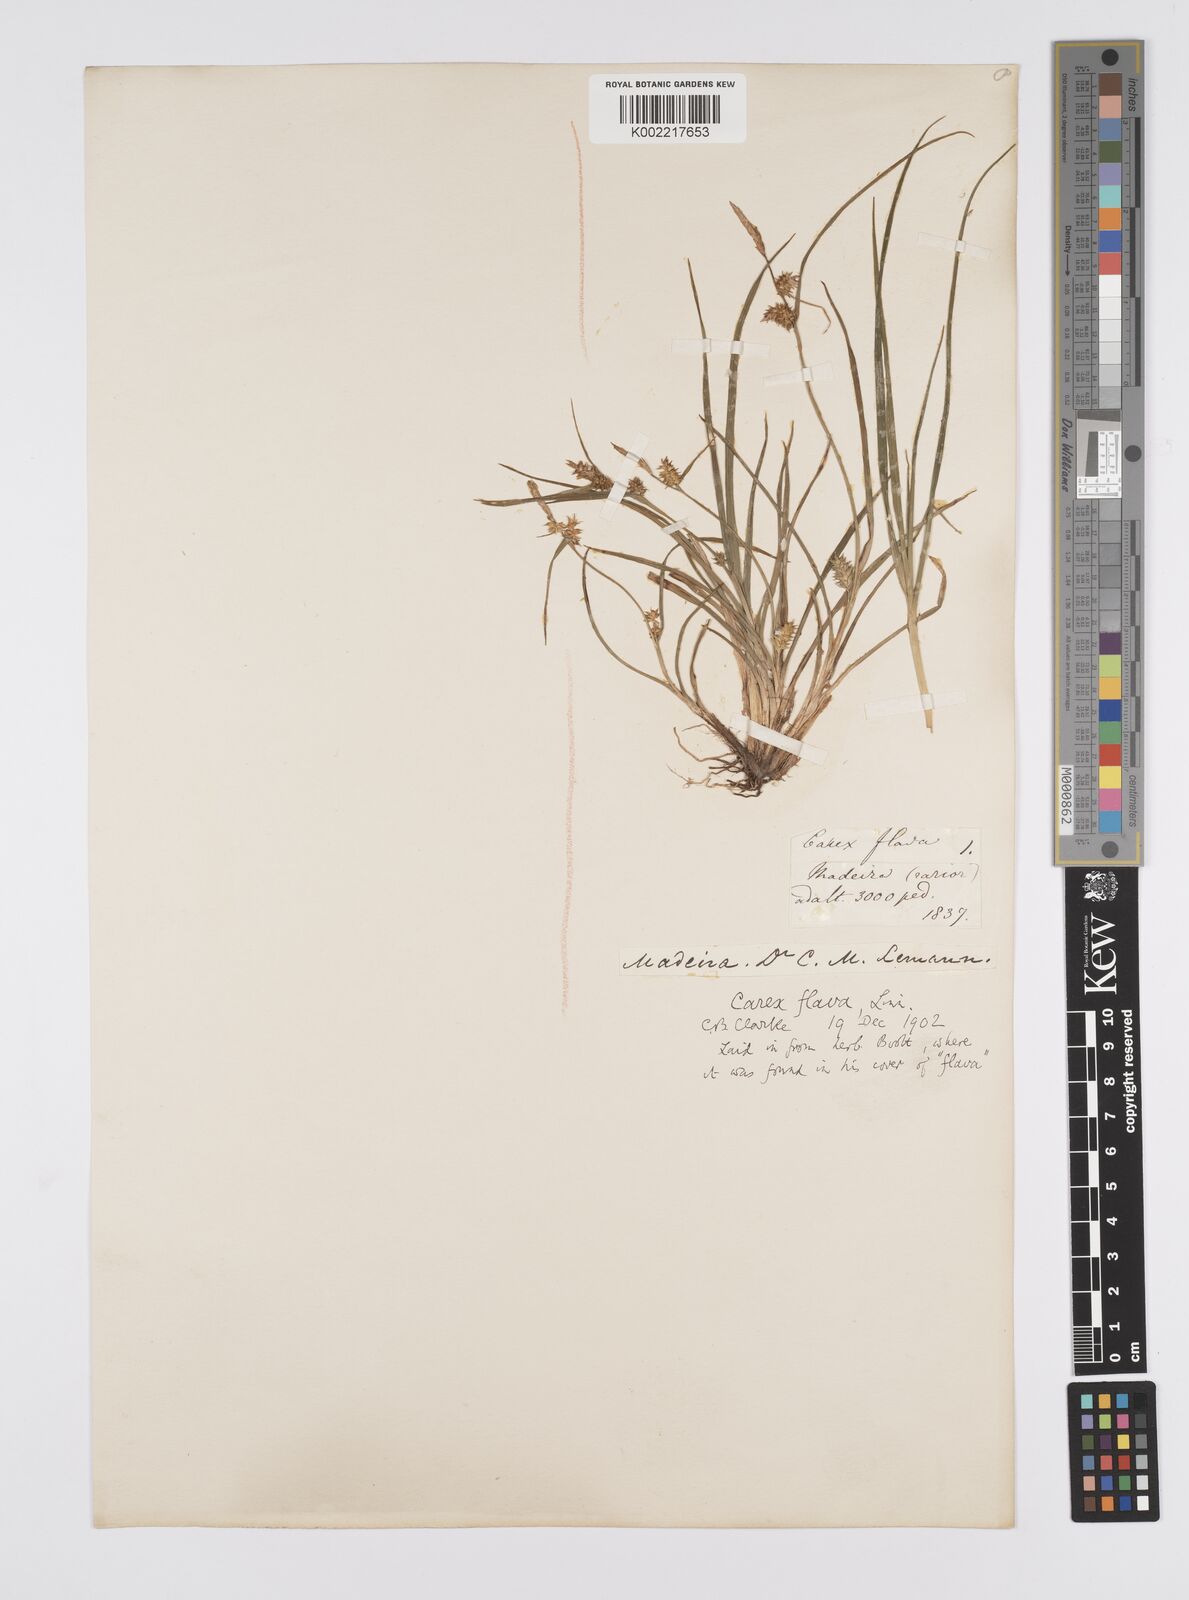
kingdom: Plantae
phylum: Tracheophyta
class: Liliopsida
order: Poales
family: Cyperaceae
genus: Carex
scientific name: Carex
